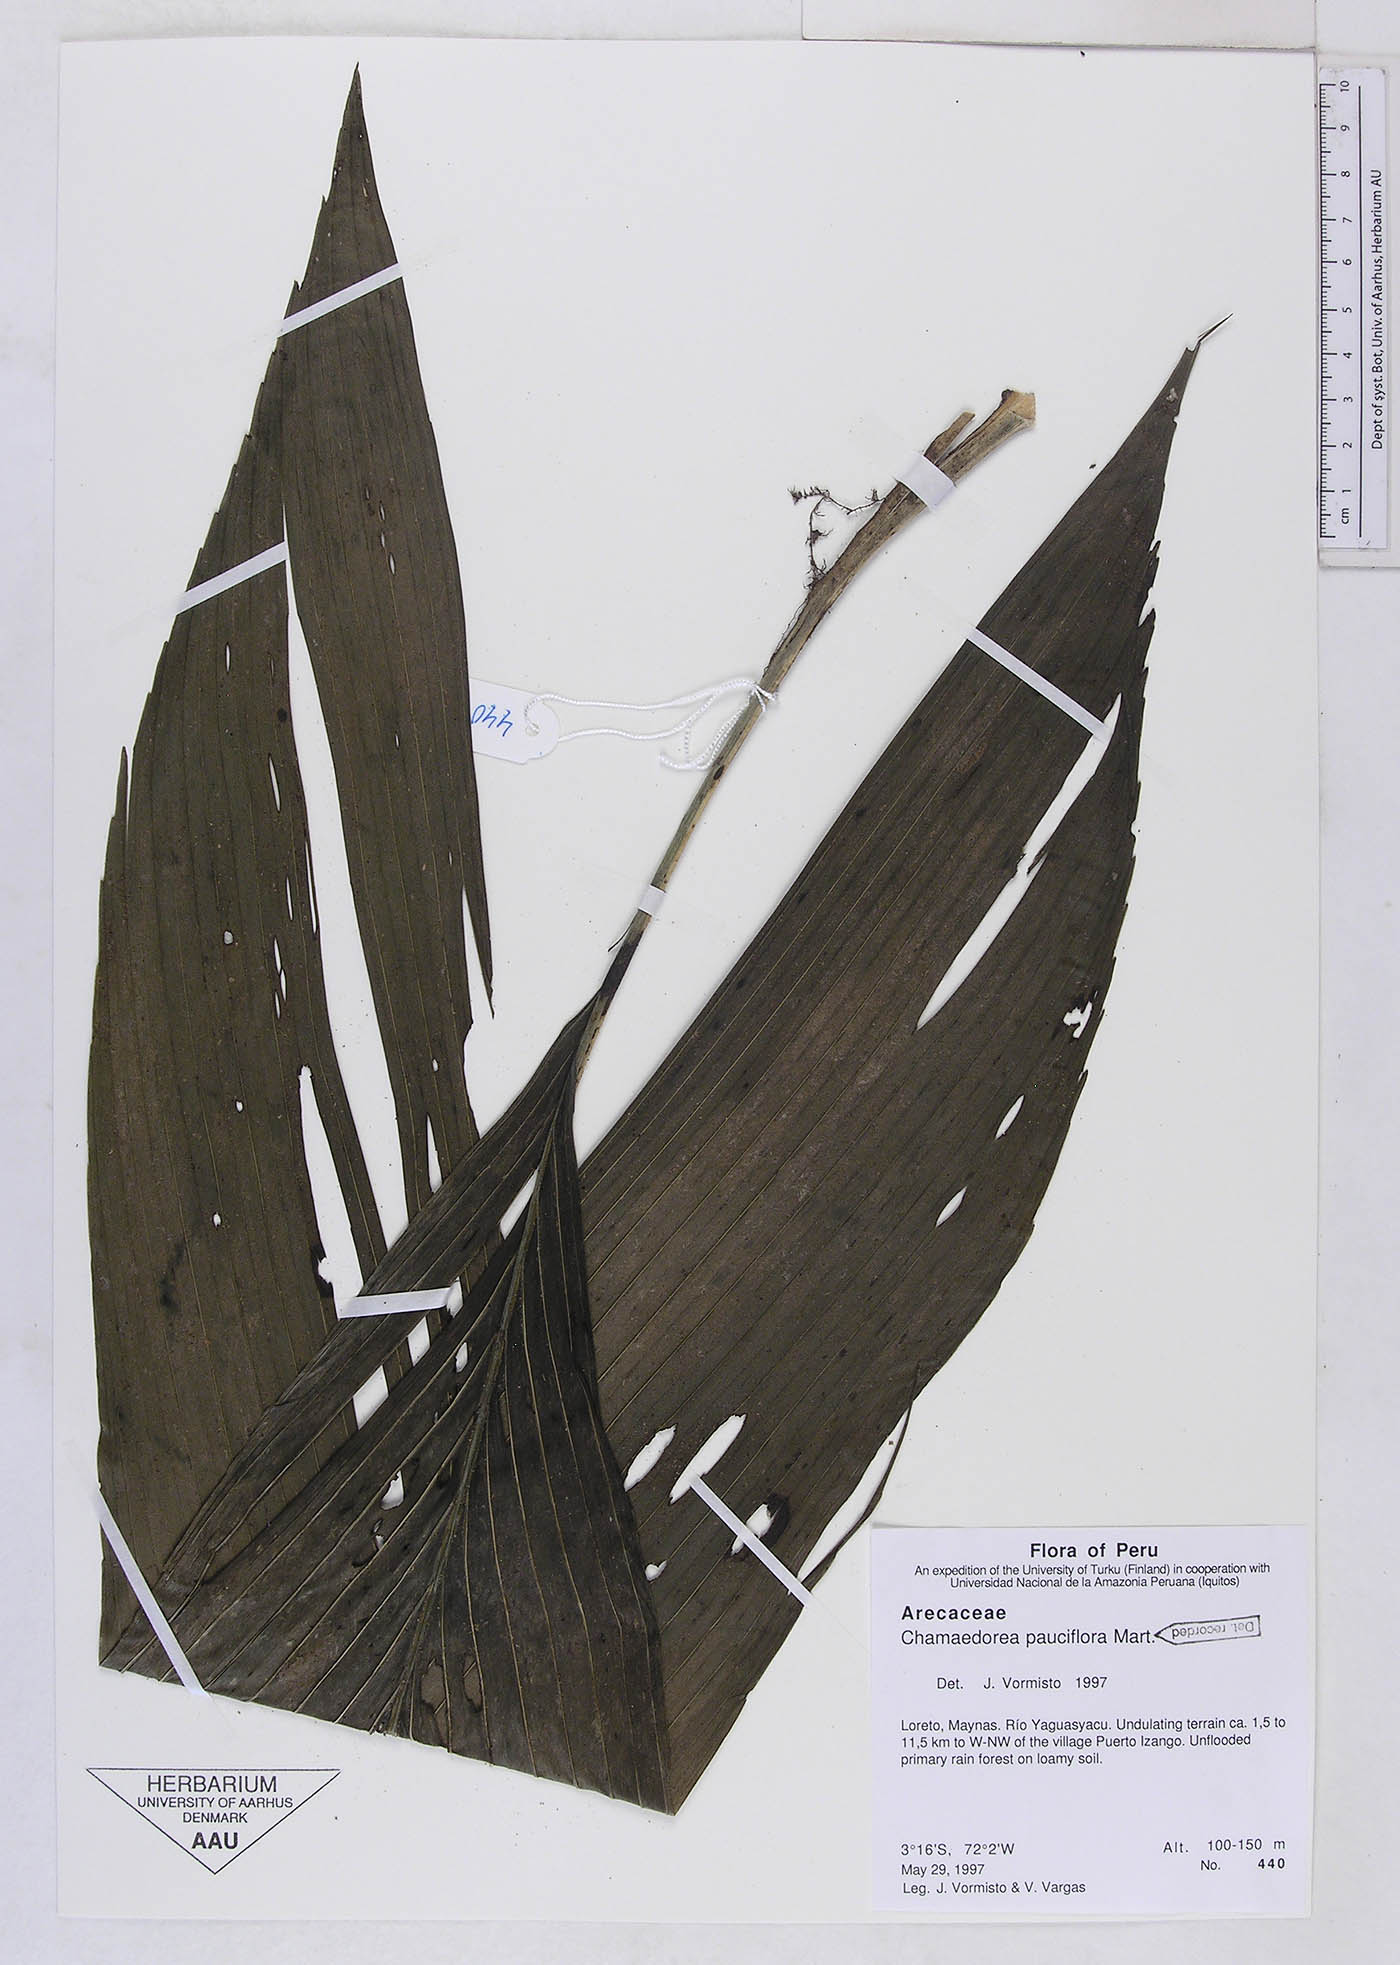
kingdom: Plantae
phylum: Tracheophyta
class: Liliopsida
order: Arecales
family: Arecaceae
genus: Chamaedorea
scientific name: Chamaedorea pauciflora
